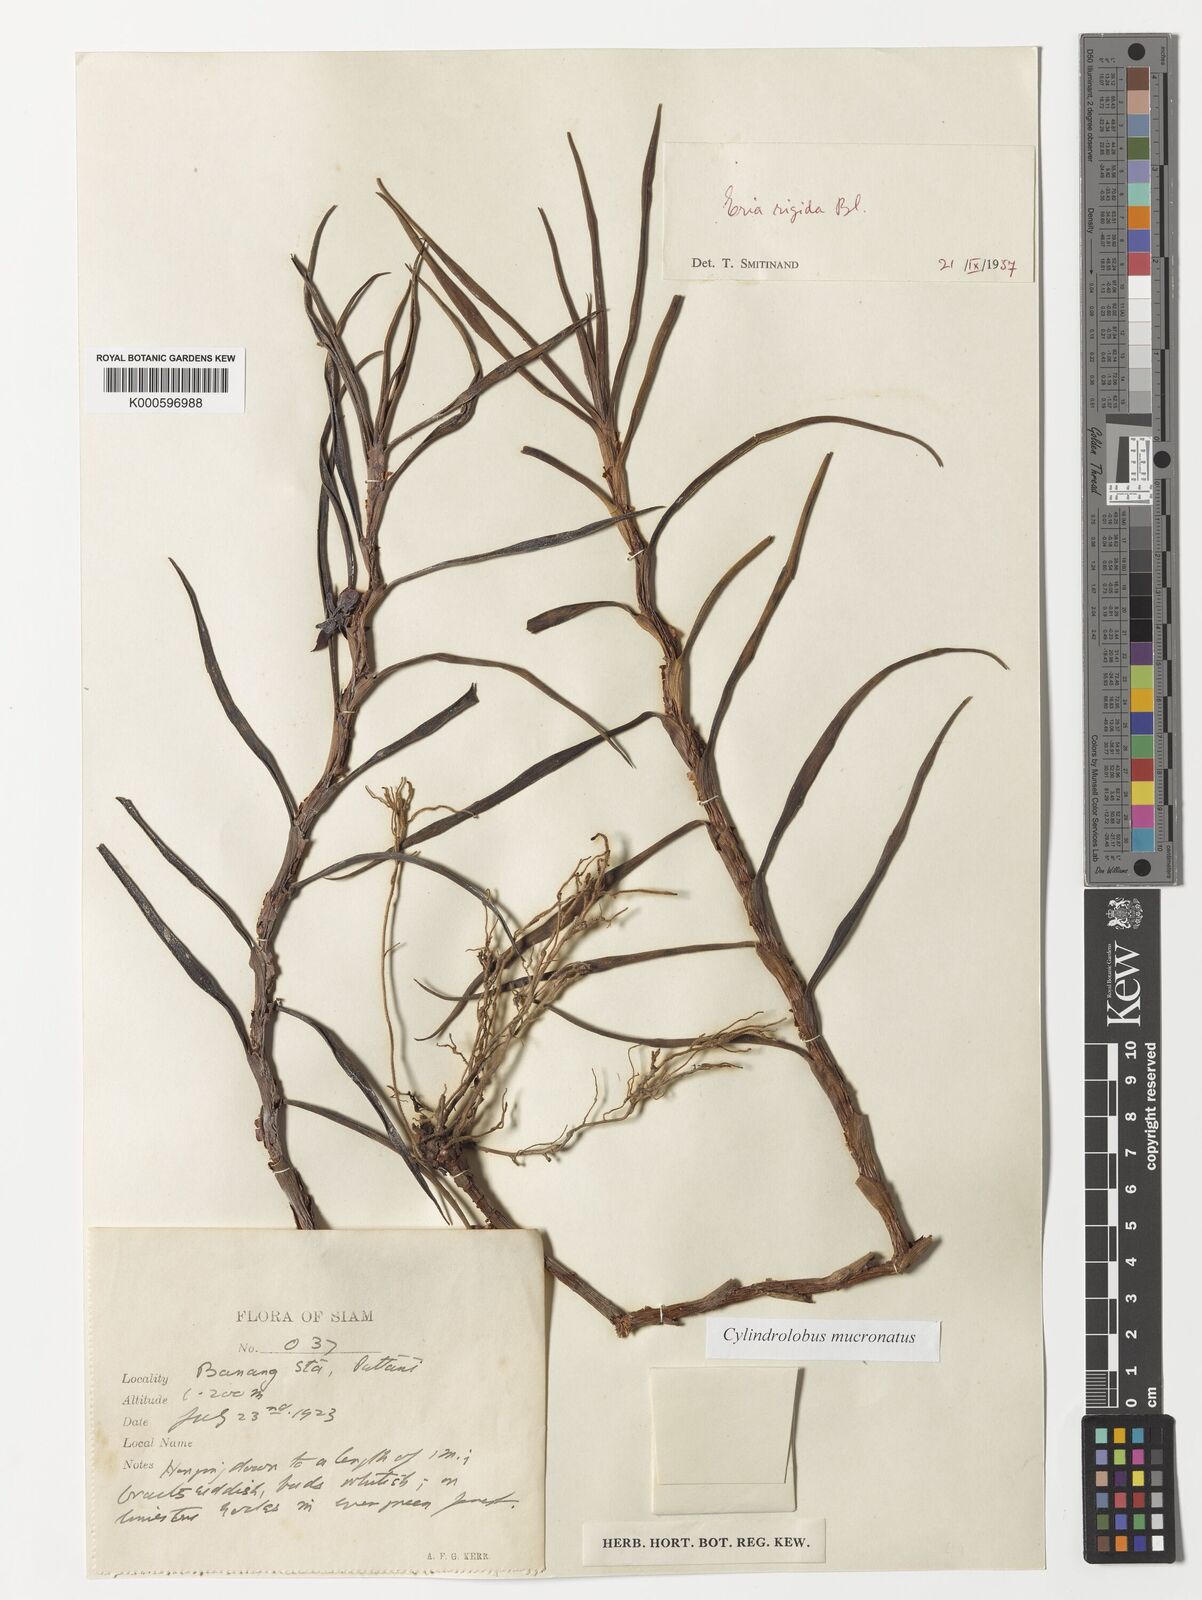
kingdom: Plantae
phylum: Tracheophyta
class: Liliopsida
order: Asparagales
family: Orchidaceae
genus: Cylindrolobus
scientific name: Cylindrolobus mucronatus
